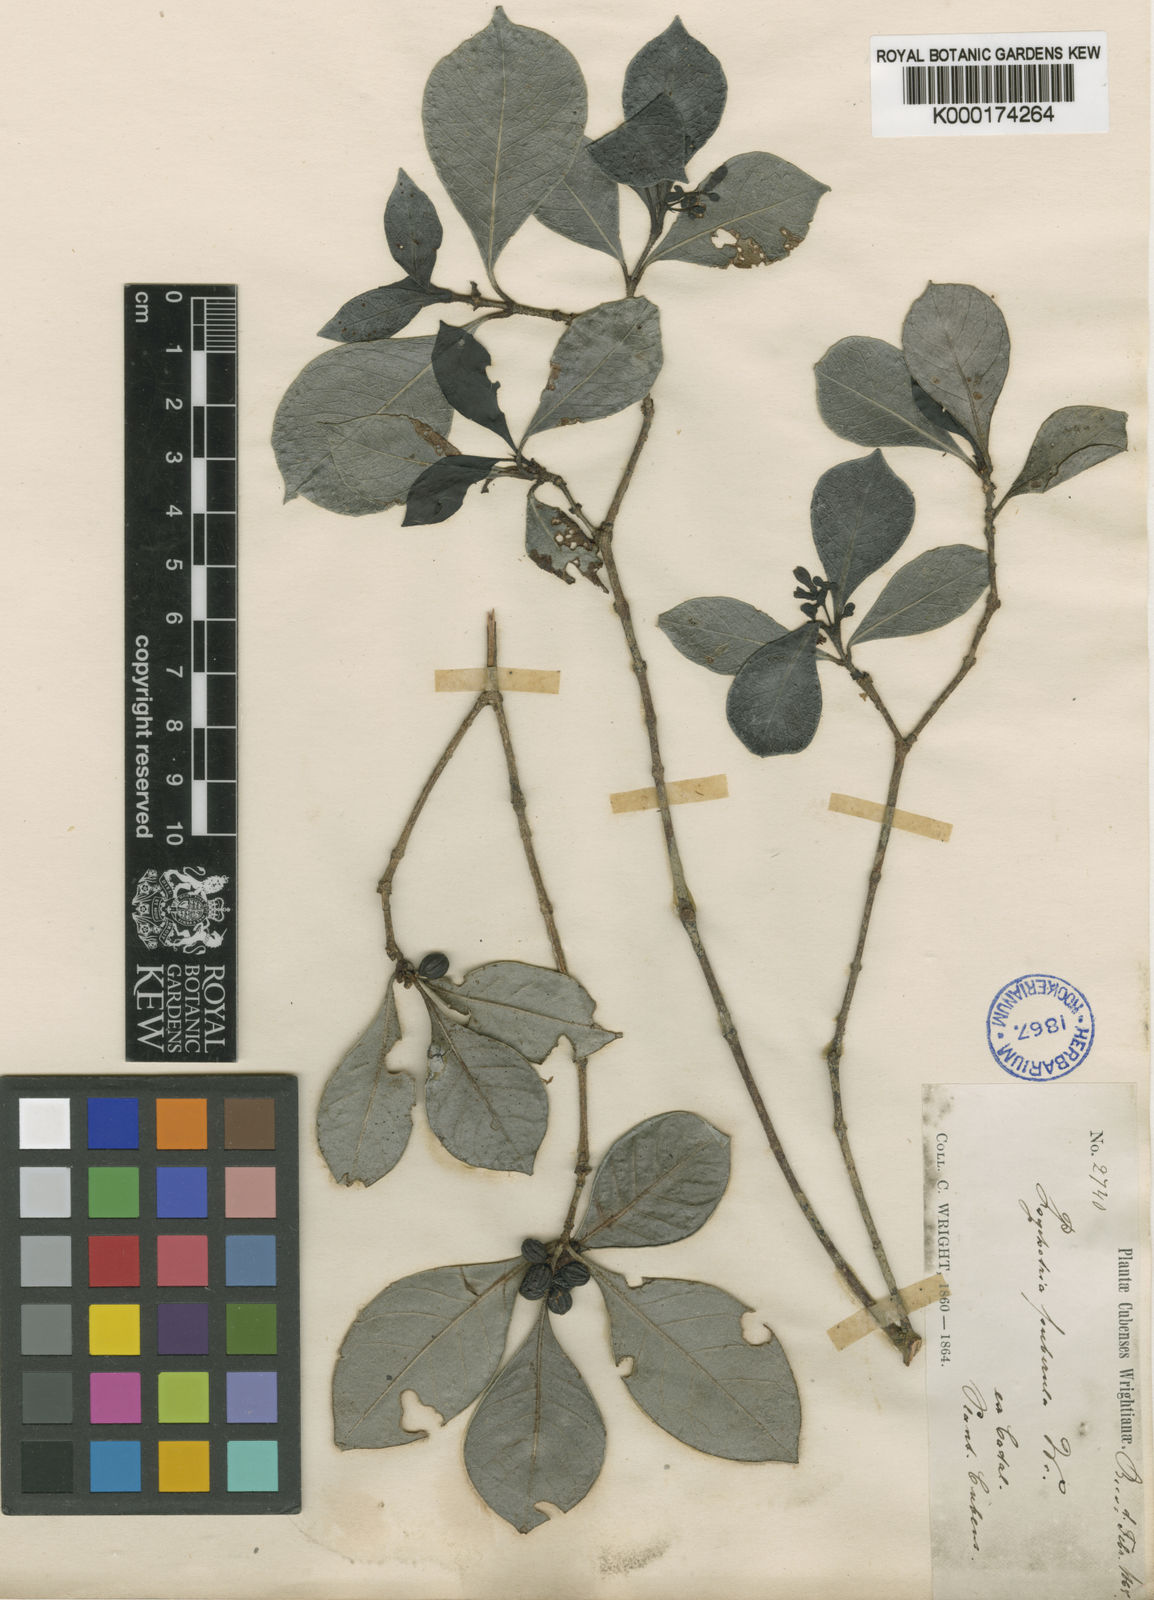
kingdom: Plantae
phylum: Tracheophyta
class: Magnoliopsida
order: Gentianales
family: Rubiaceae
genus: Psychotria
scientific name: Psychotria obovalis
